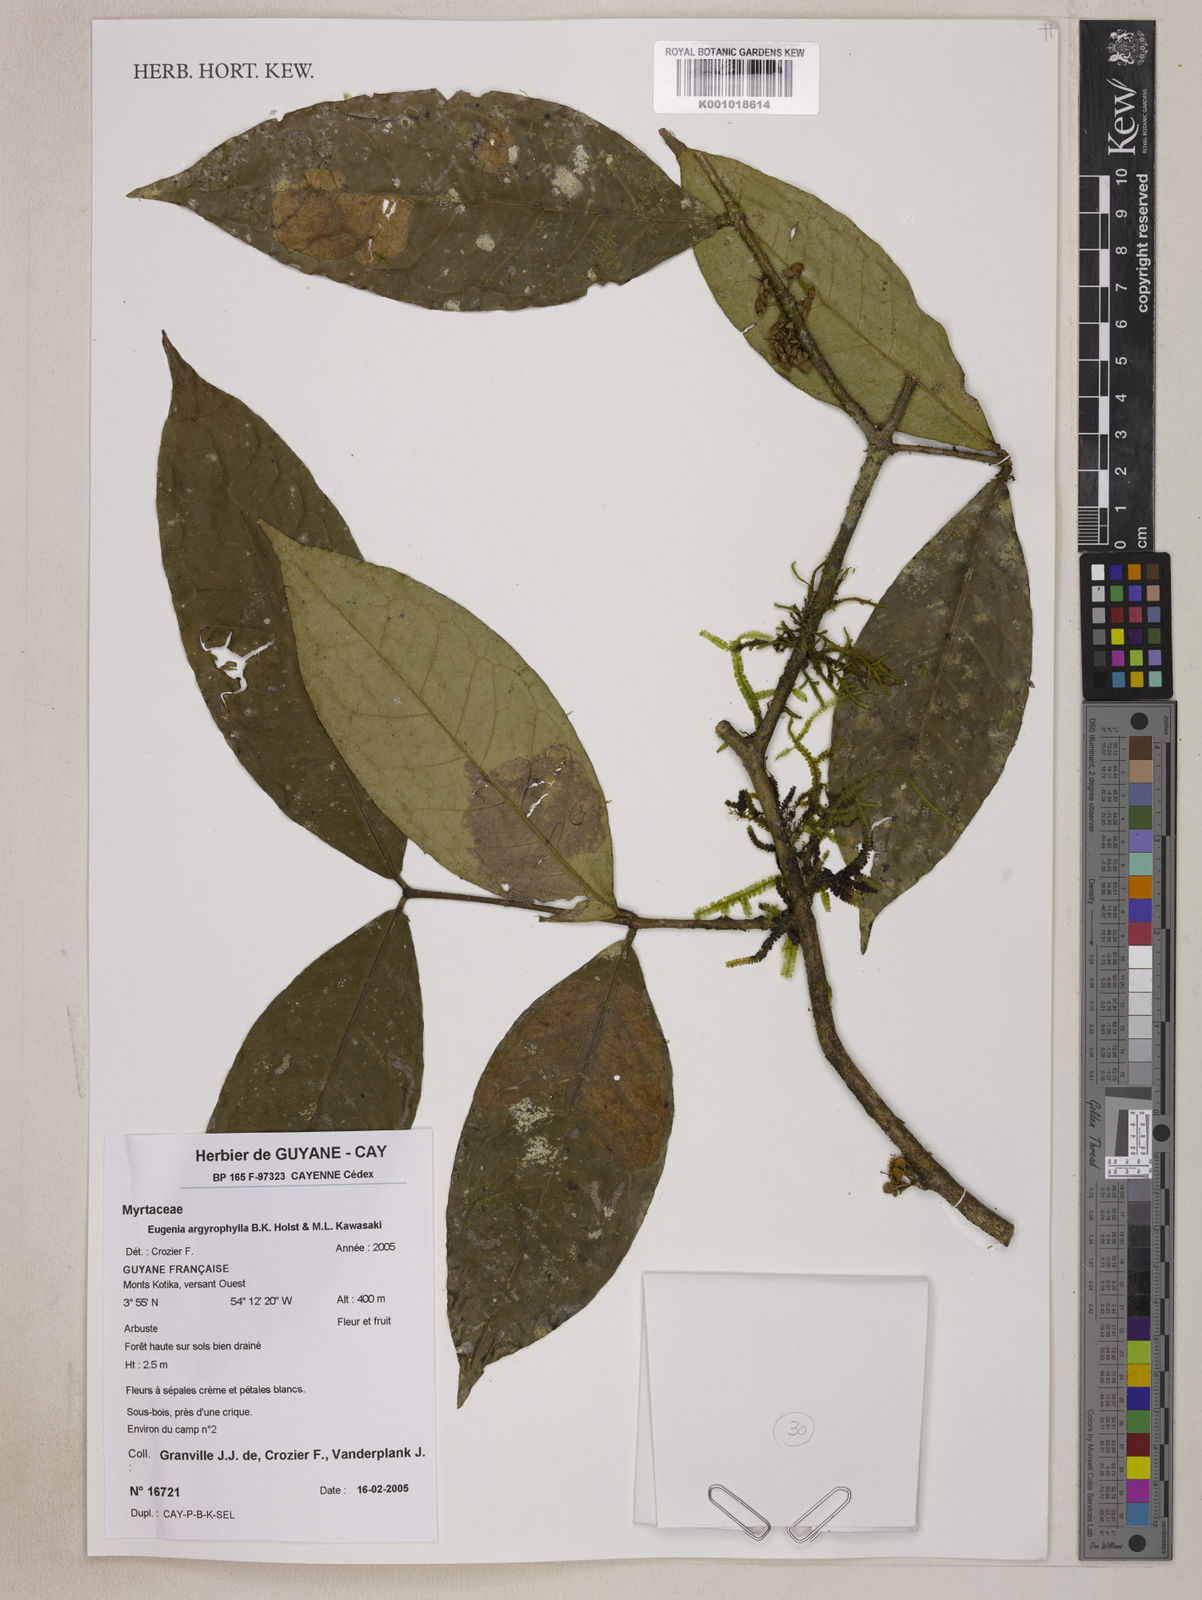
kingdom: Plantae
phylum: Tracheophyta
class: Magnoliopsida
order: Myrtales
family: Myrtaceae
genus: Eugenia
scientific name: Eugenia argyrophylla
